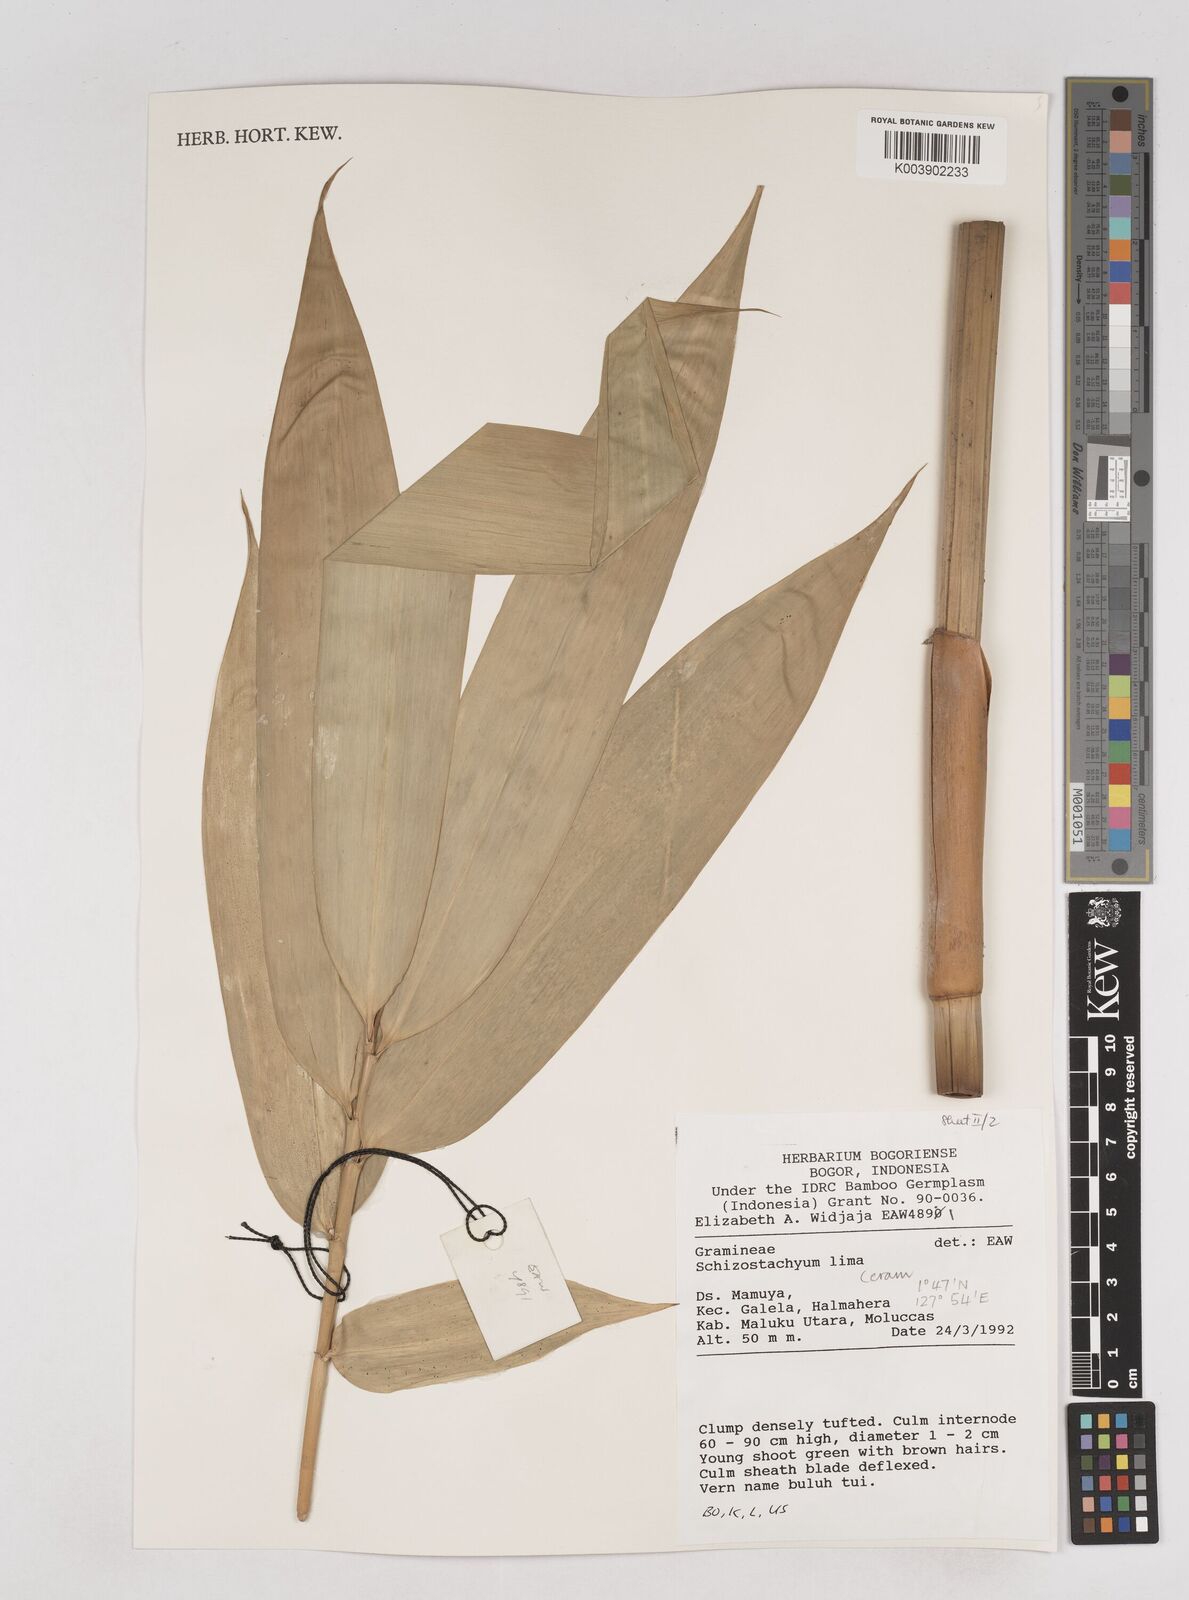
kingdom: Plantae
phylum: Tracheophyta
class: Liliopsida
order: Poales
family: Poaceae
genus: Schizostachyum
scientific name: Schizostachyum lima
